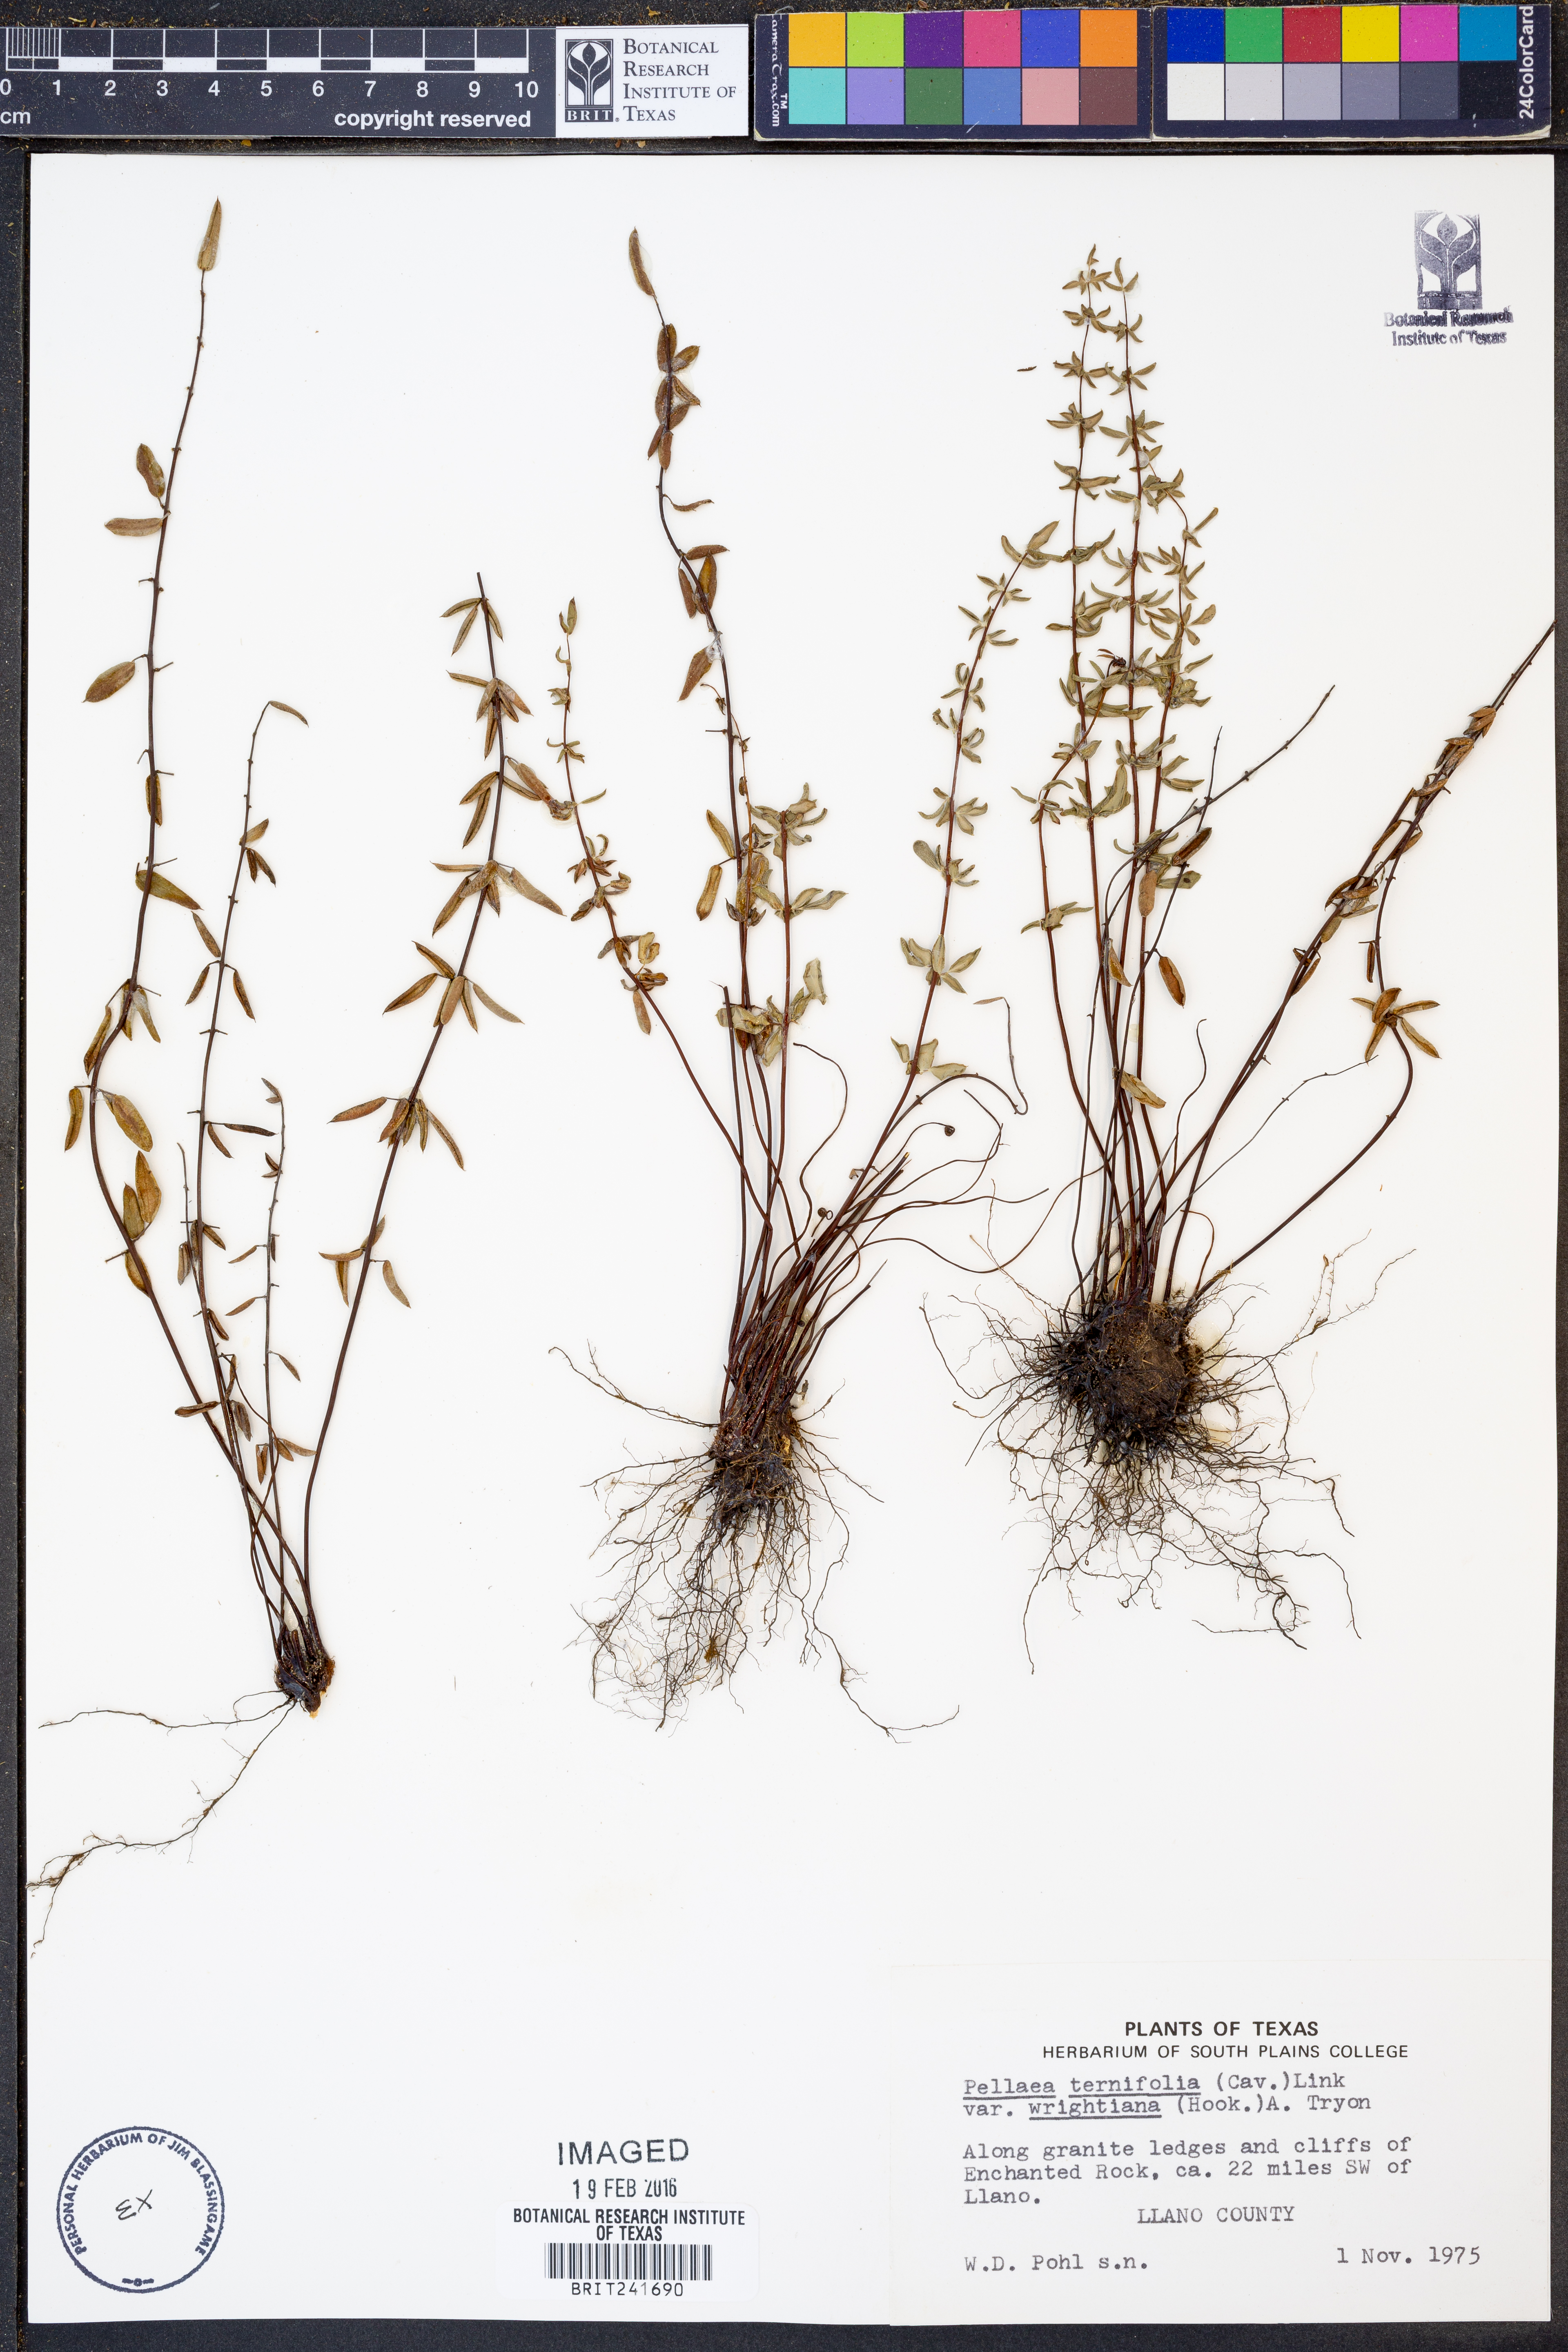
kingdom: Plantae
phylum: Tracheophyta
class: Polypodiopsida
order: Polypodiales
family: Pteridaceae
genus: Pellaea
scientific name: Pellaea wrightiana
